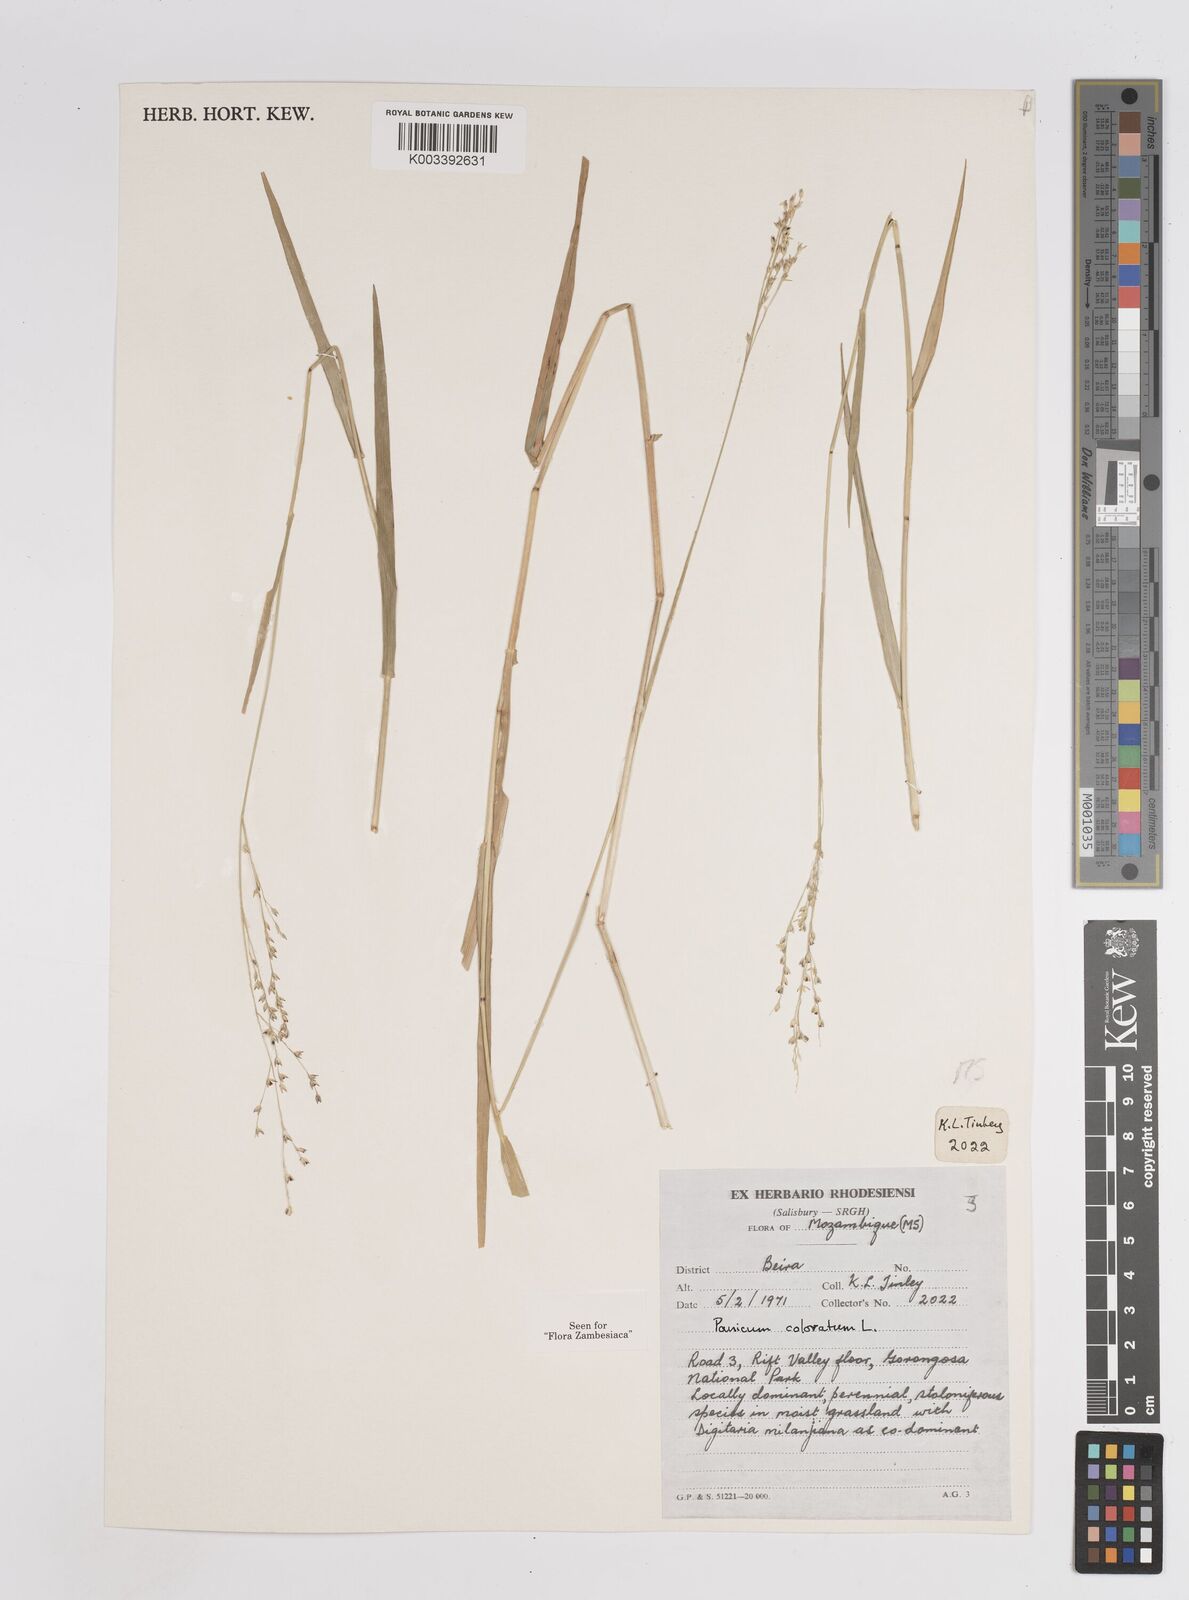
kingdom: Plantae
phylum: Tracheophyta
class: Liliopsida
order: Poales
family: Poaceae
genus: Panicum
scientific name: Panicum
